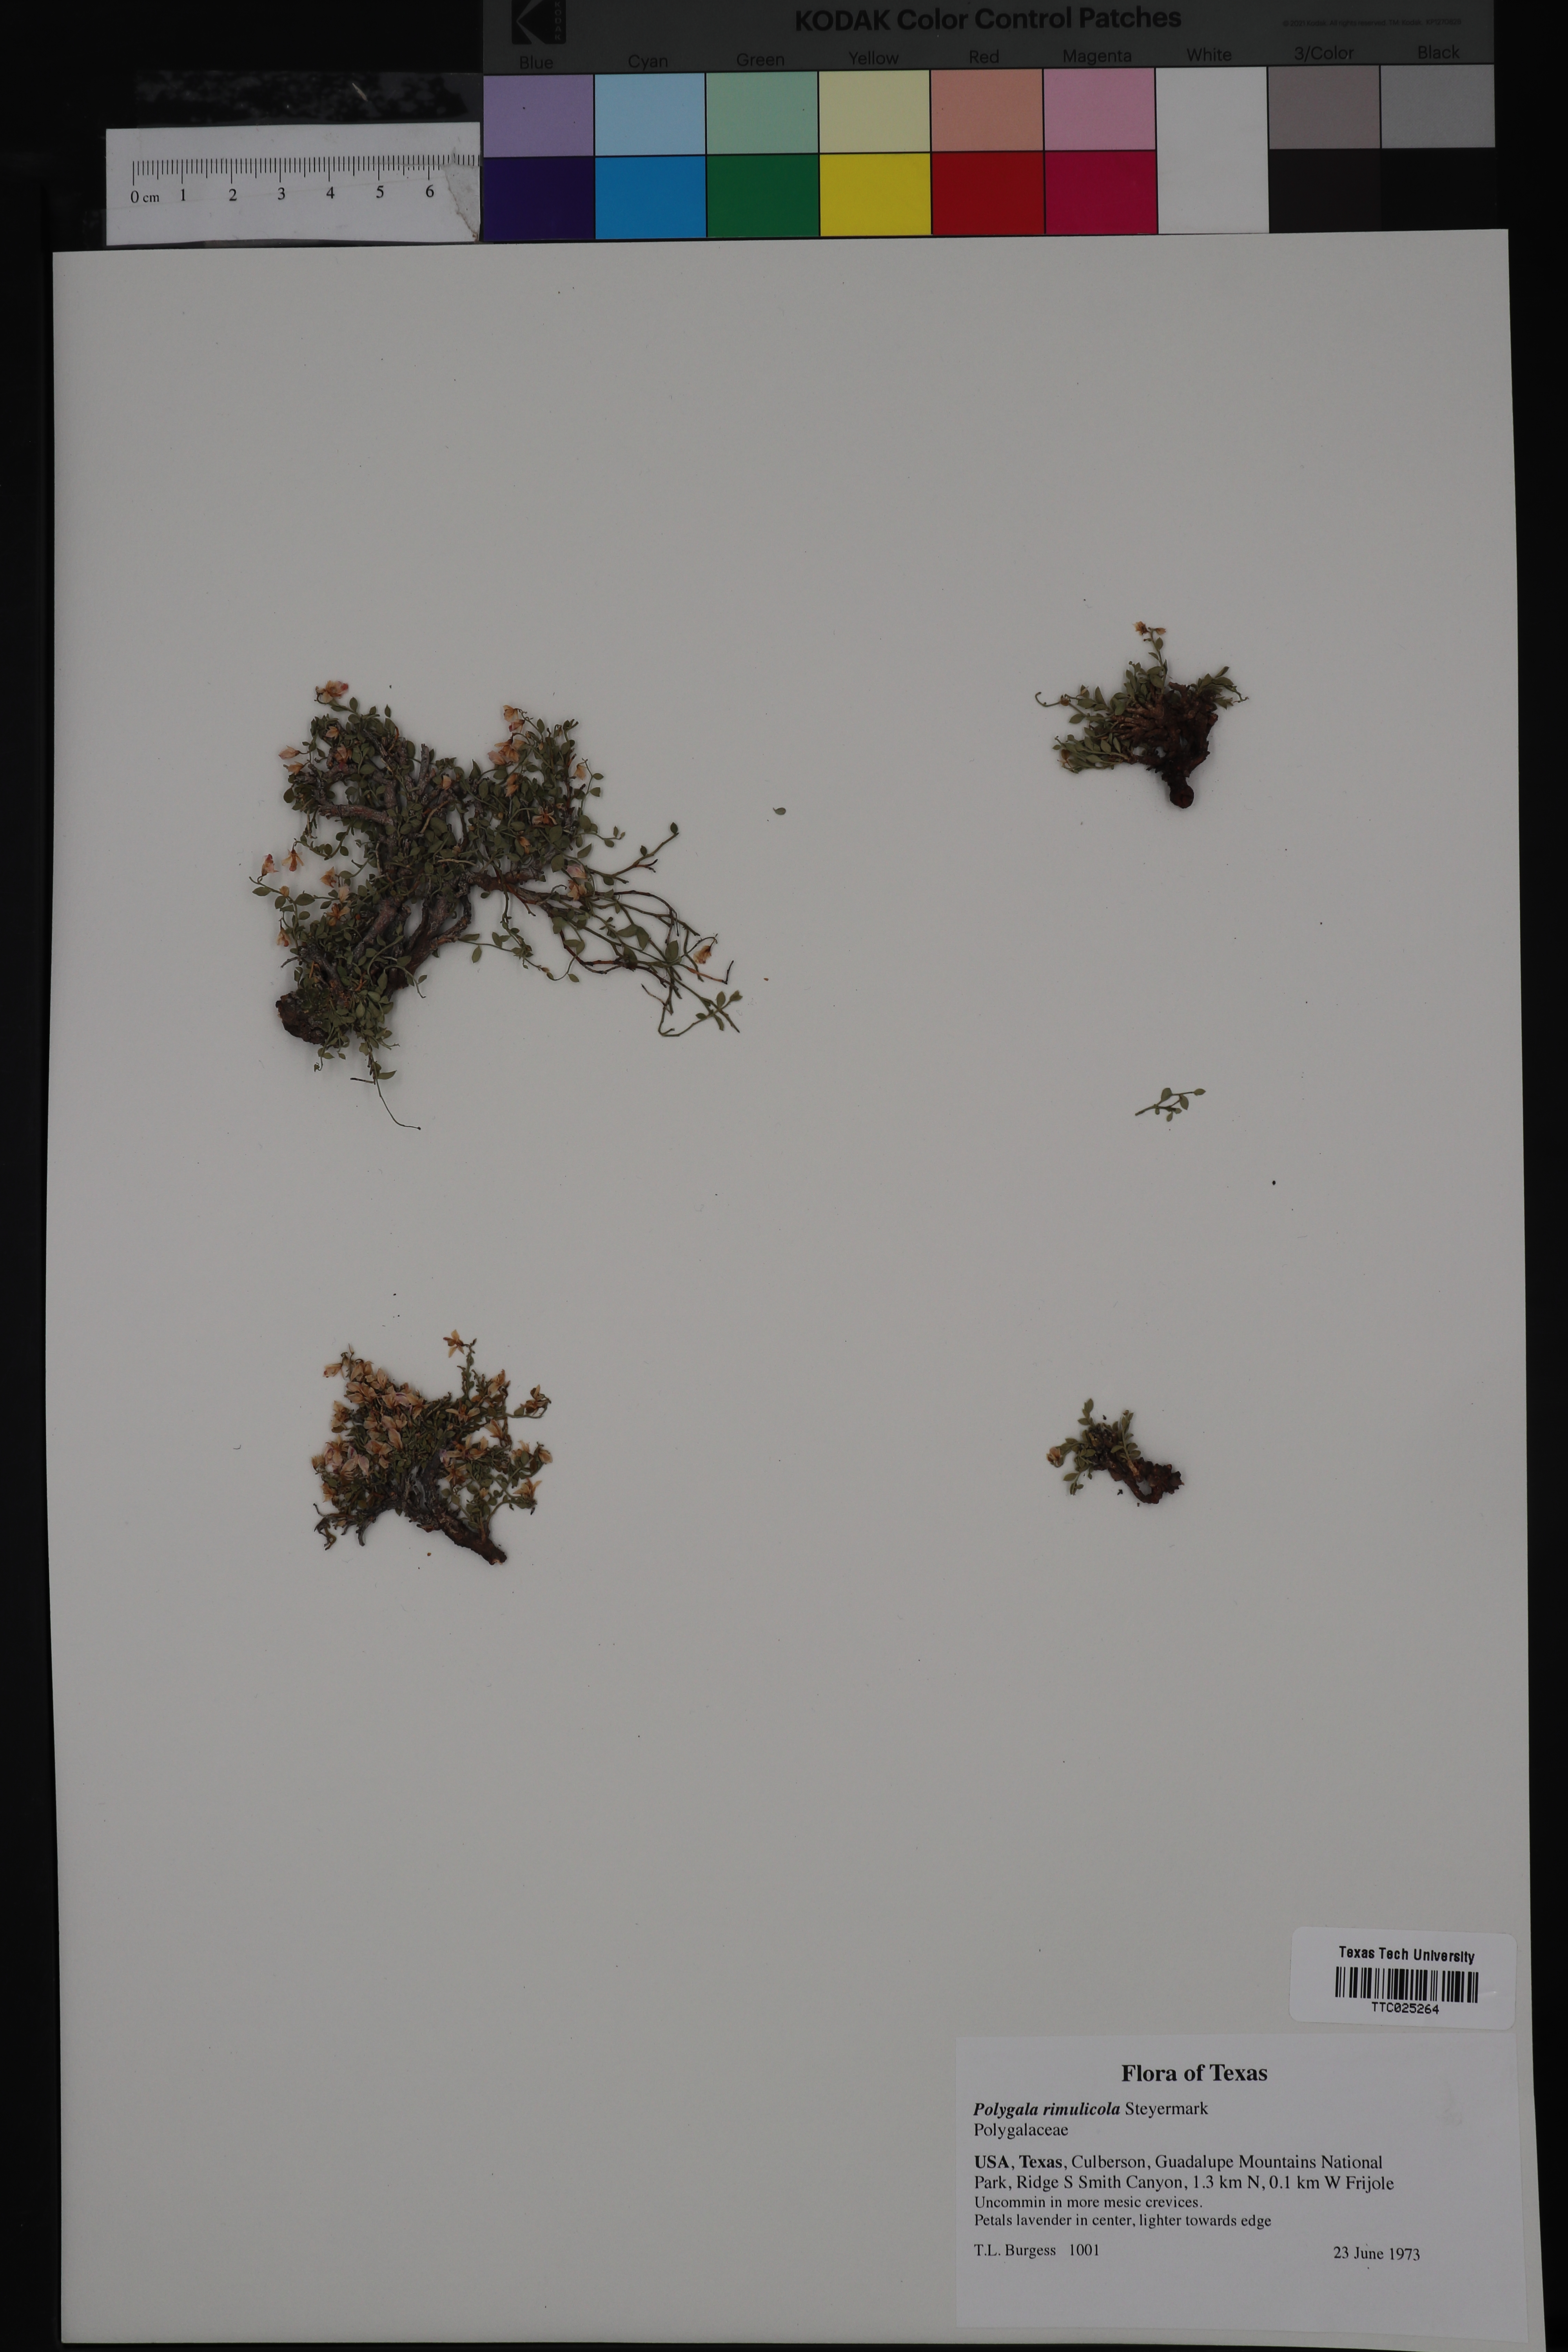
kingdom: Plantae
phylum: Tracheophyta
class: Magnoliopsida
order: Fabales
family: Polygalaceae
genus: Rhinotropis
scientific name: Rhinotropis rimulicola
